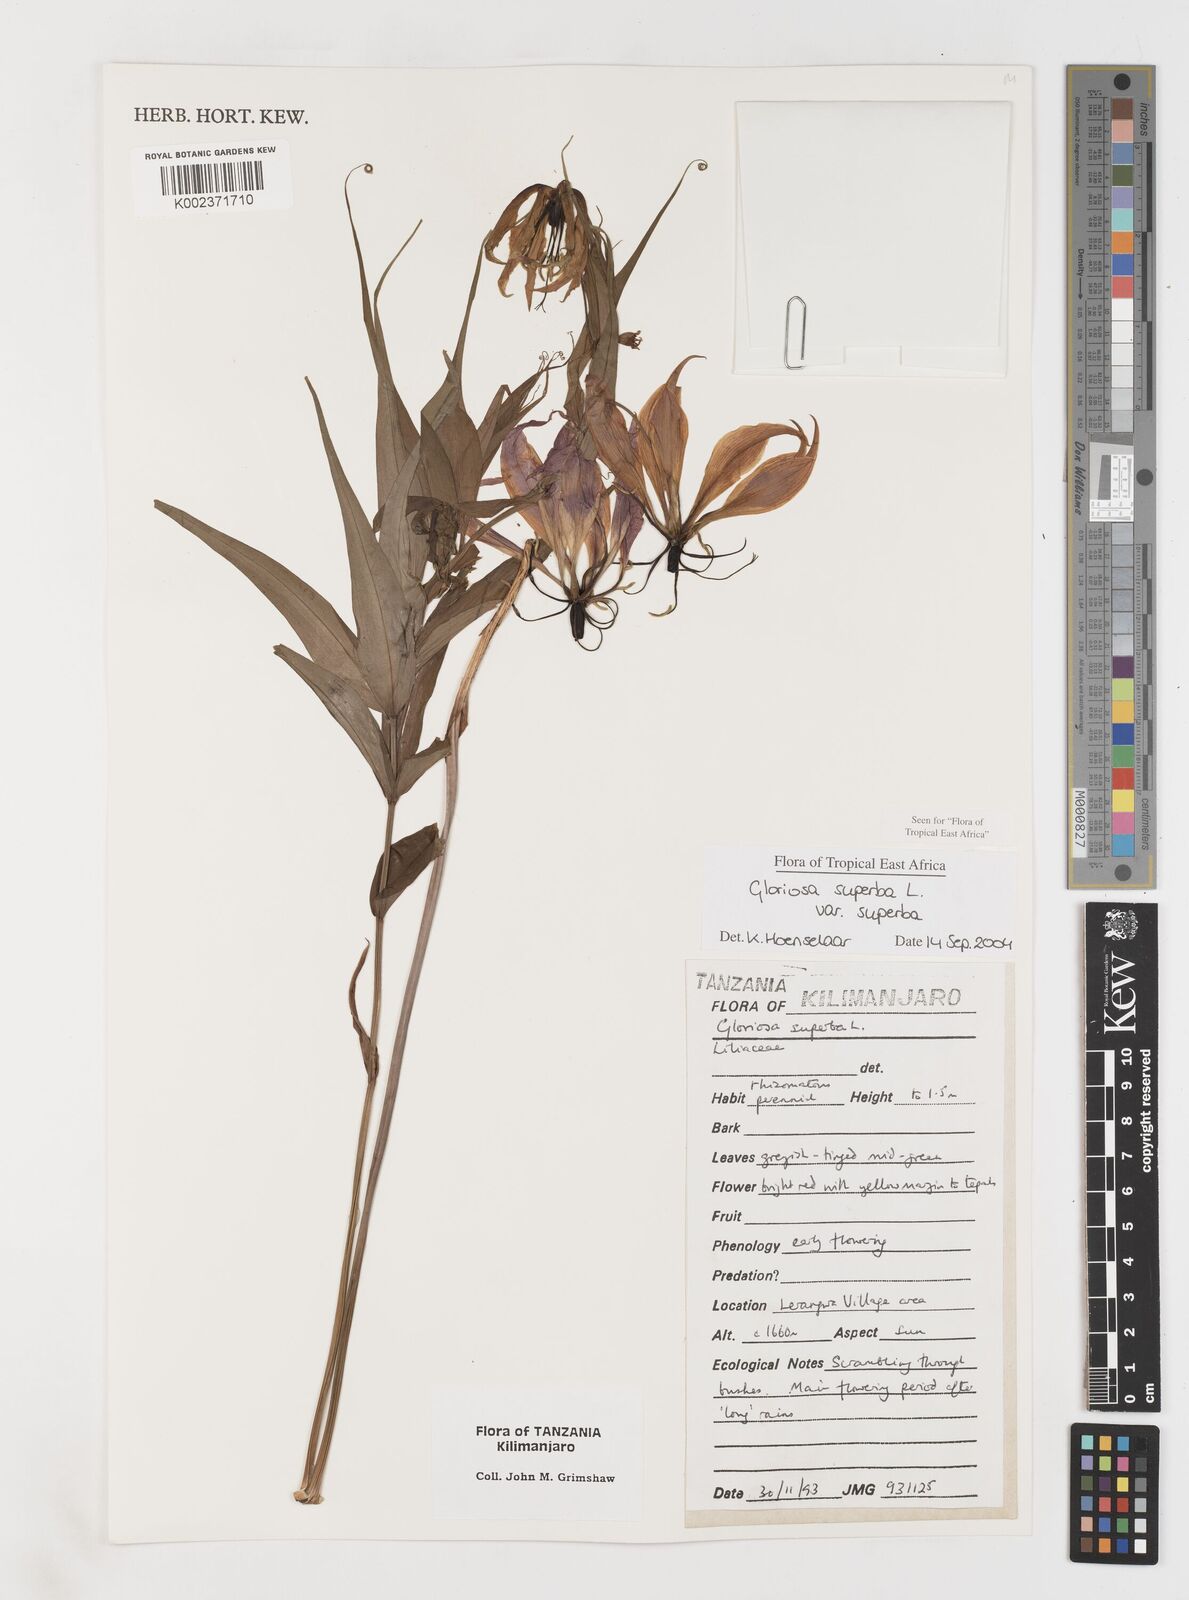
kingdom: Plantae
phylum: Tracheophyta
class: Liliopsida
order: Liliales
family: Colchicaceae
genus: Gloriosa
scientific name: Gloriosa simplex
